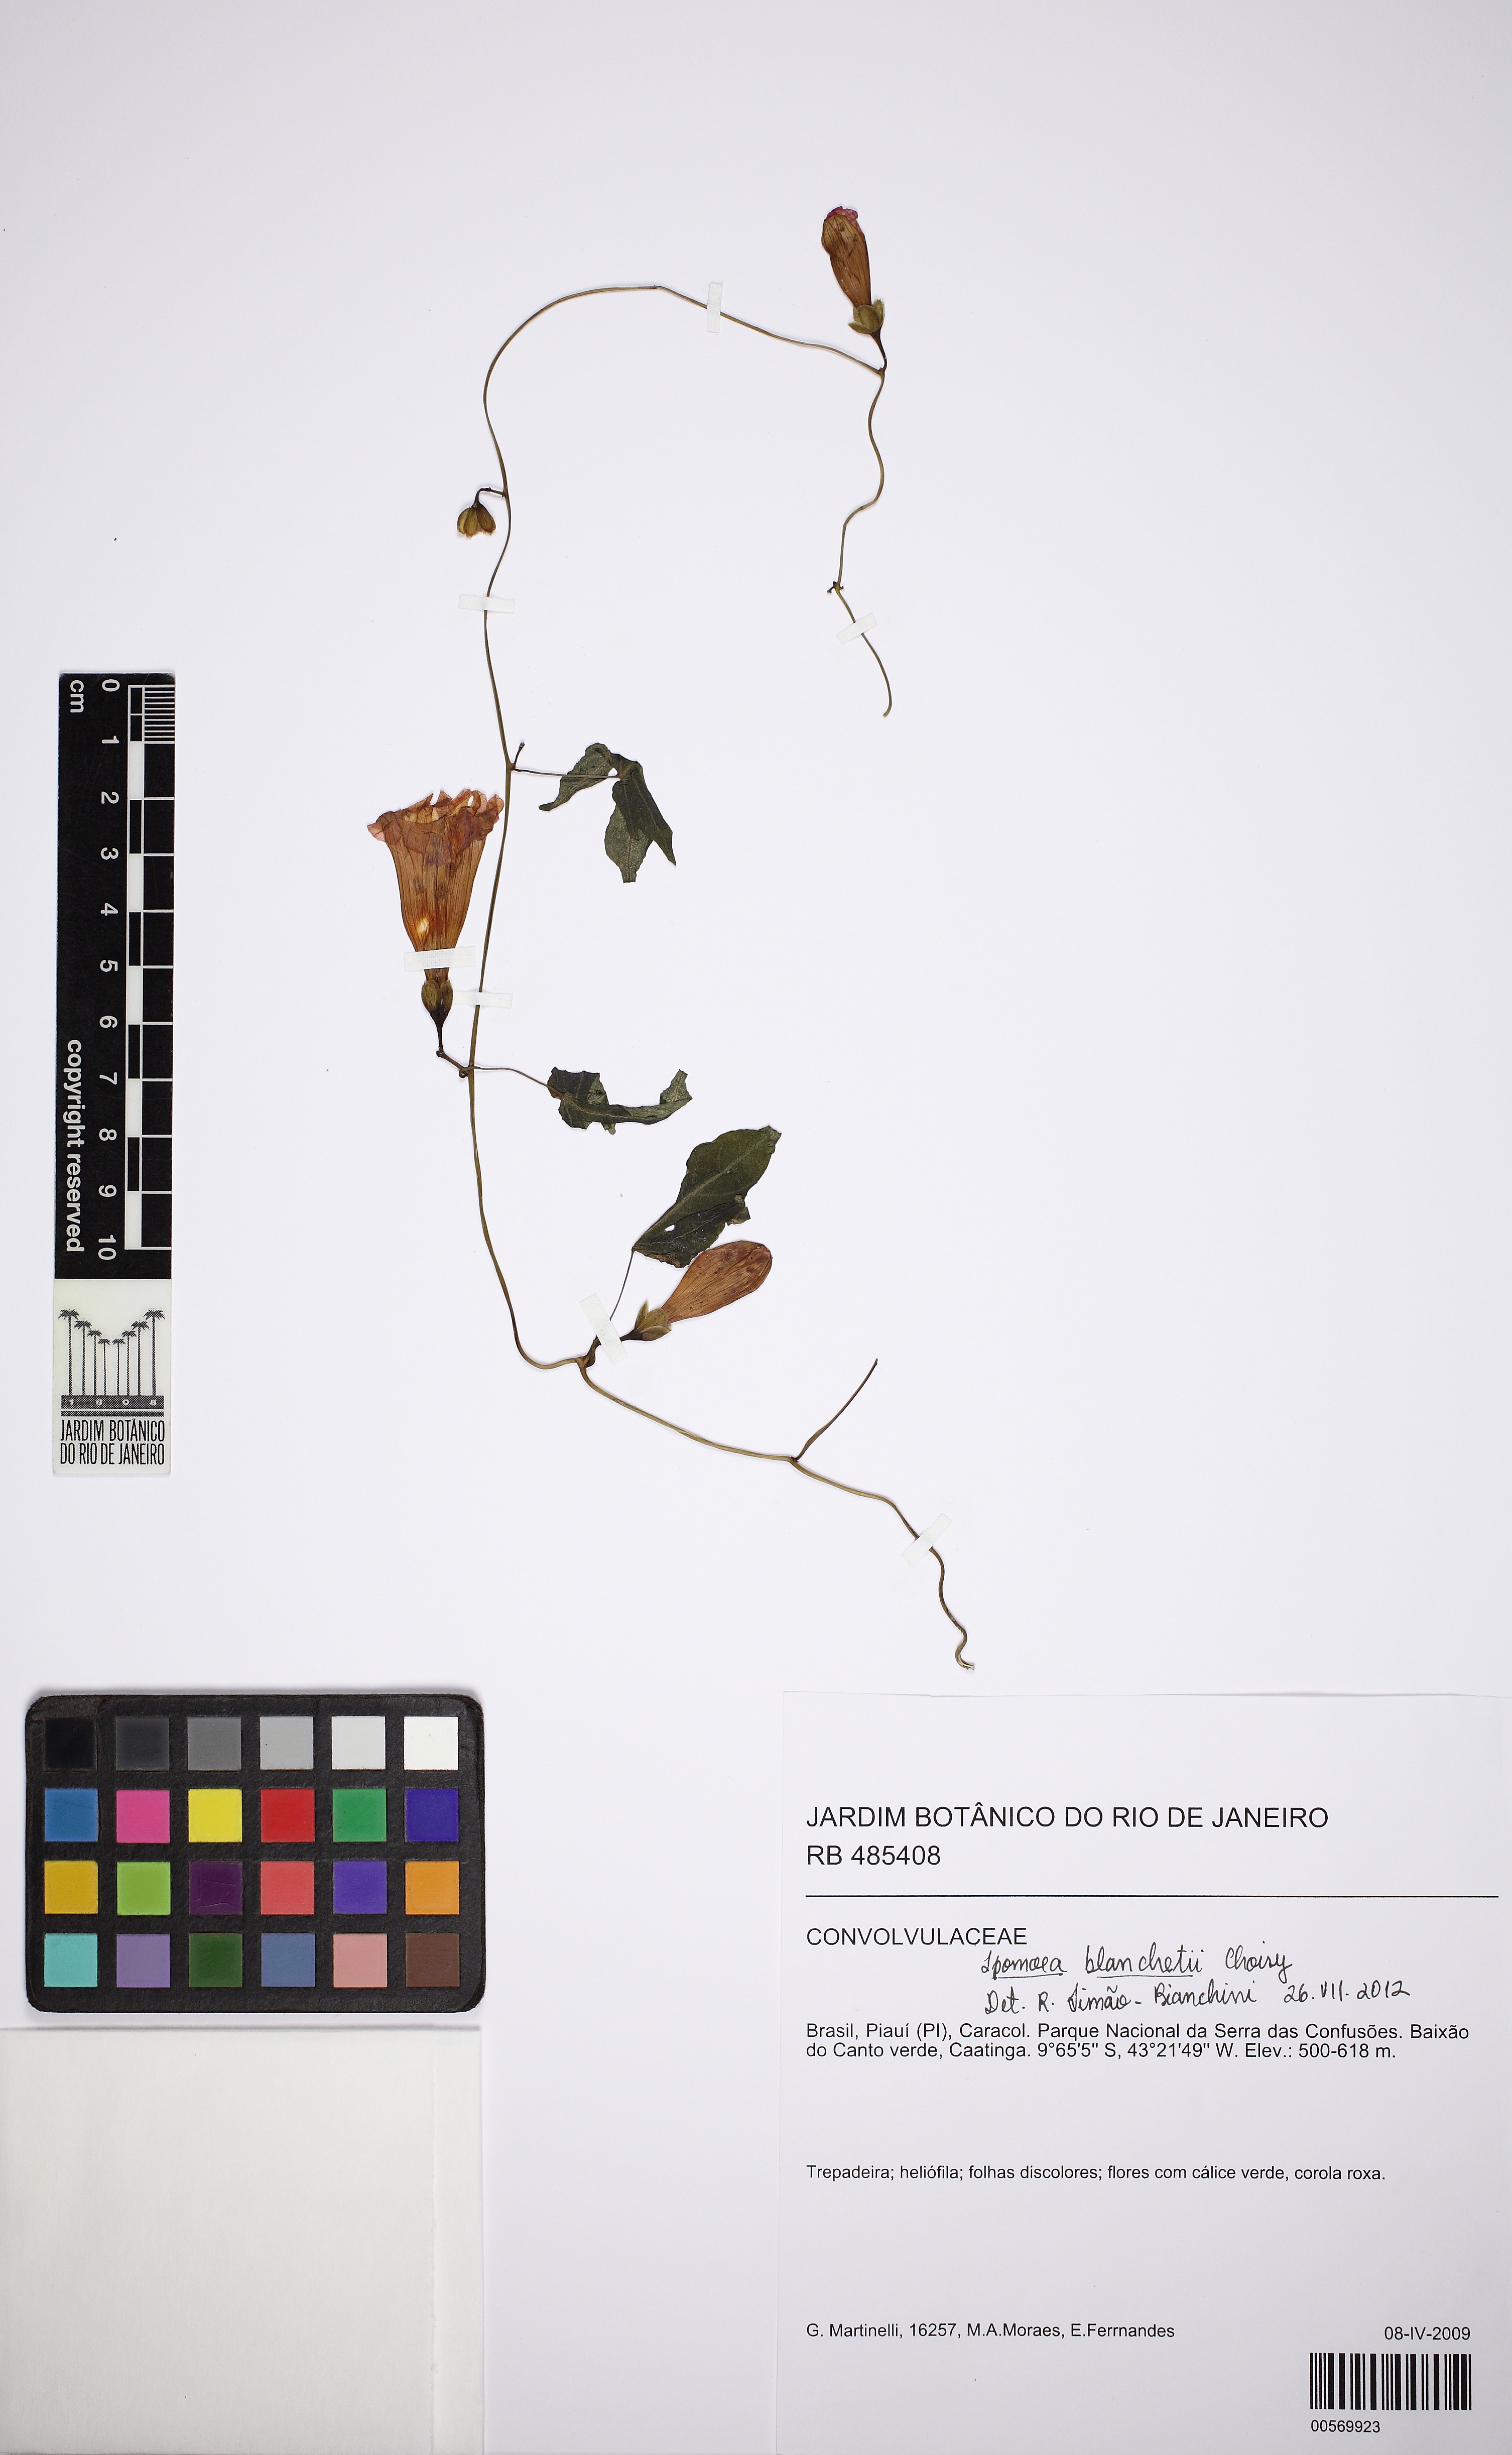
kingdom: Plantae
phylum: Tracheophyta
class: Magnoliopsida
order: Solanales
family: Convolvulaceae
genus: Ipomoea
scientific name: Ipomoea blanchetii
